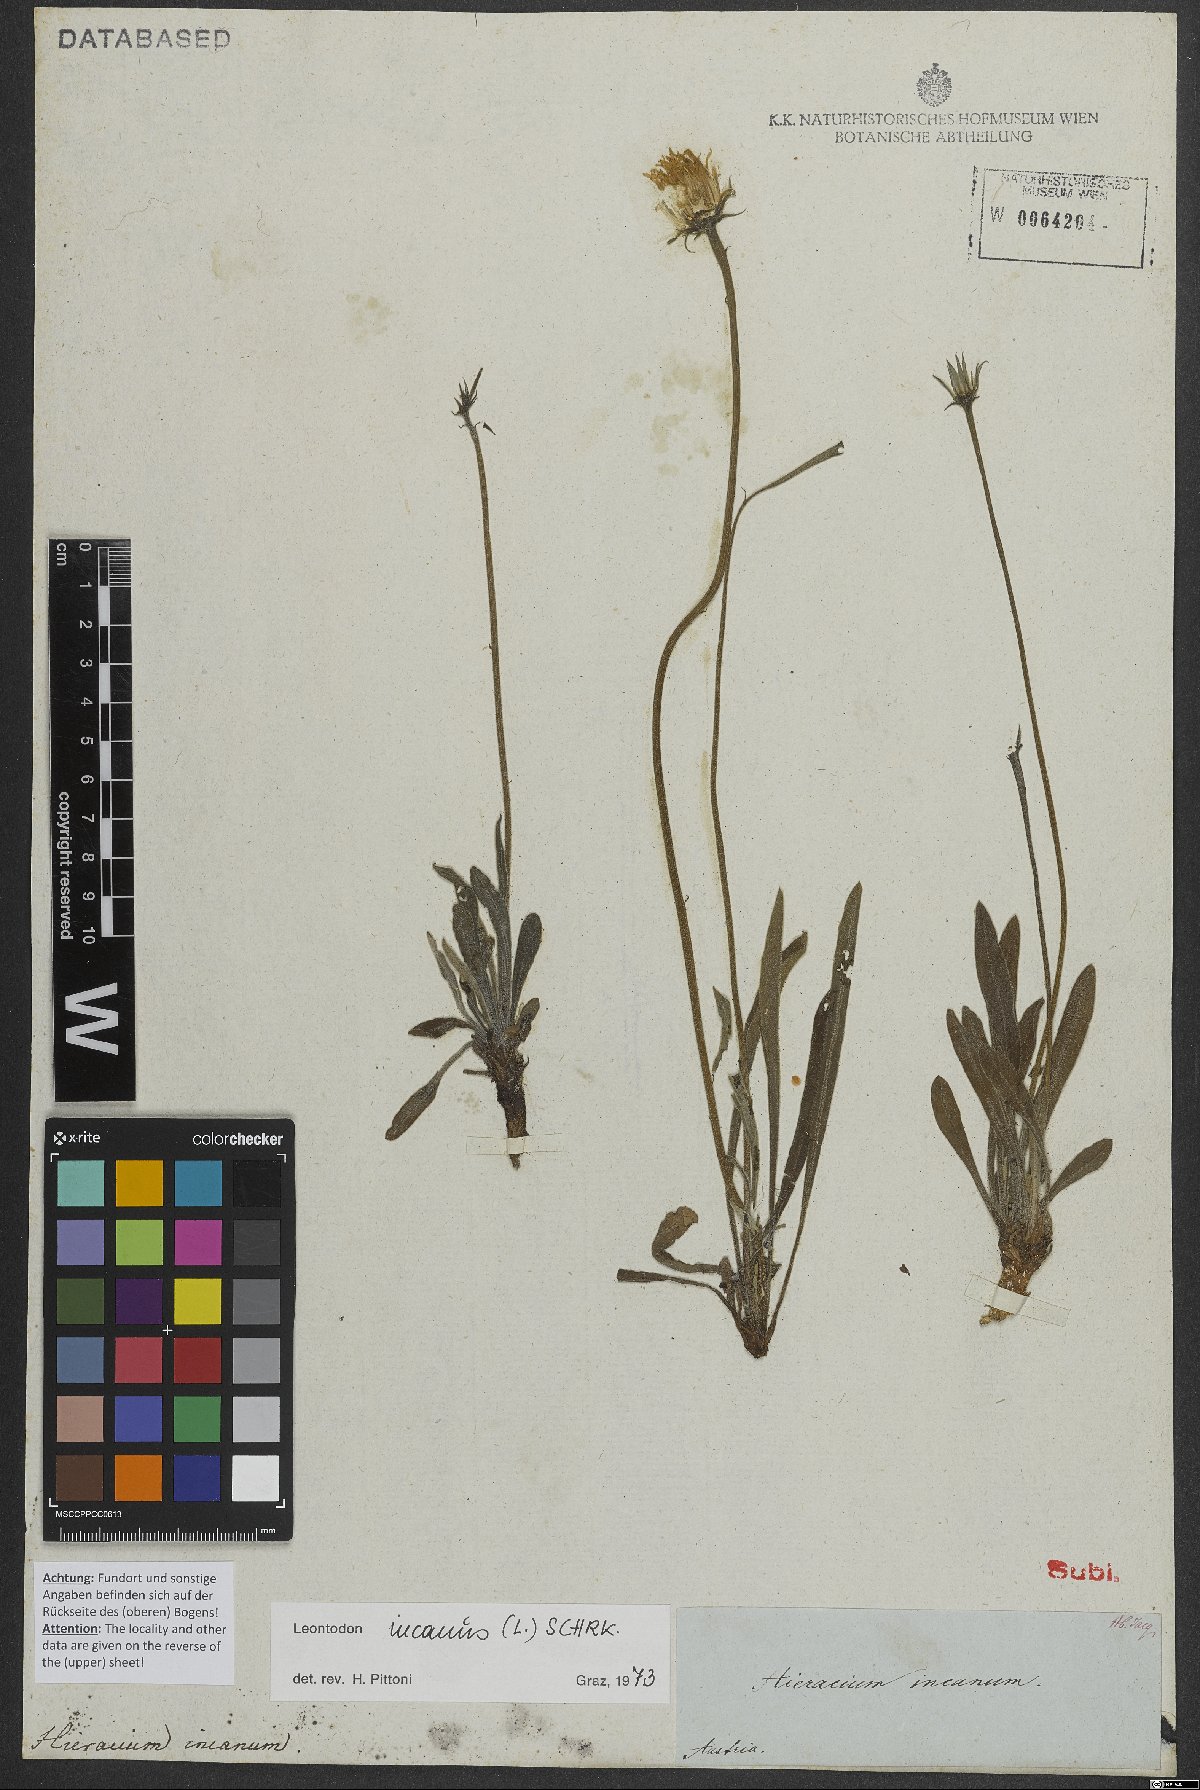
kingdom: Plantae
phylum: Tracheophyta
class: Magnoliopsida
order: Asterales
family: Asteraceae
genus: Leontodon
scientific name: Leontodon incanus
